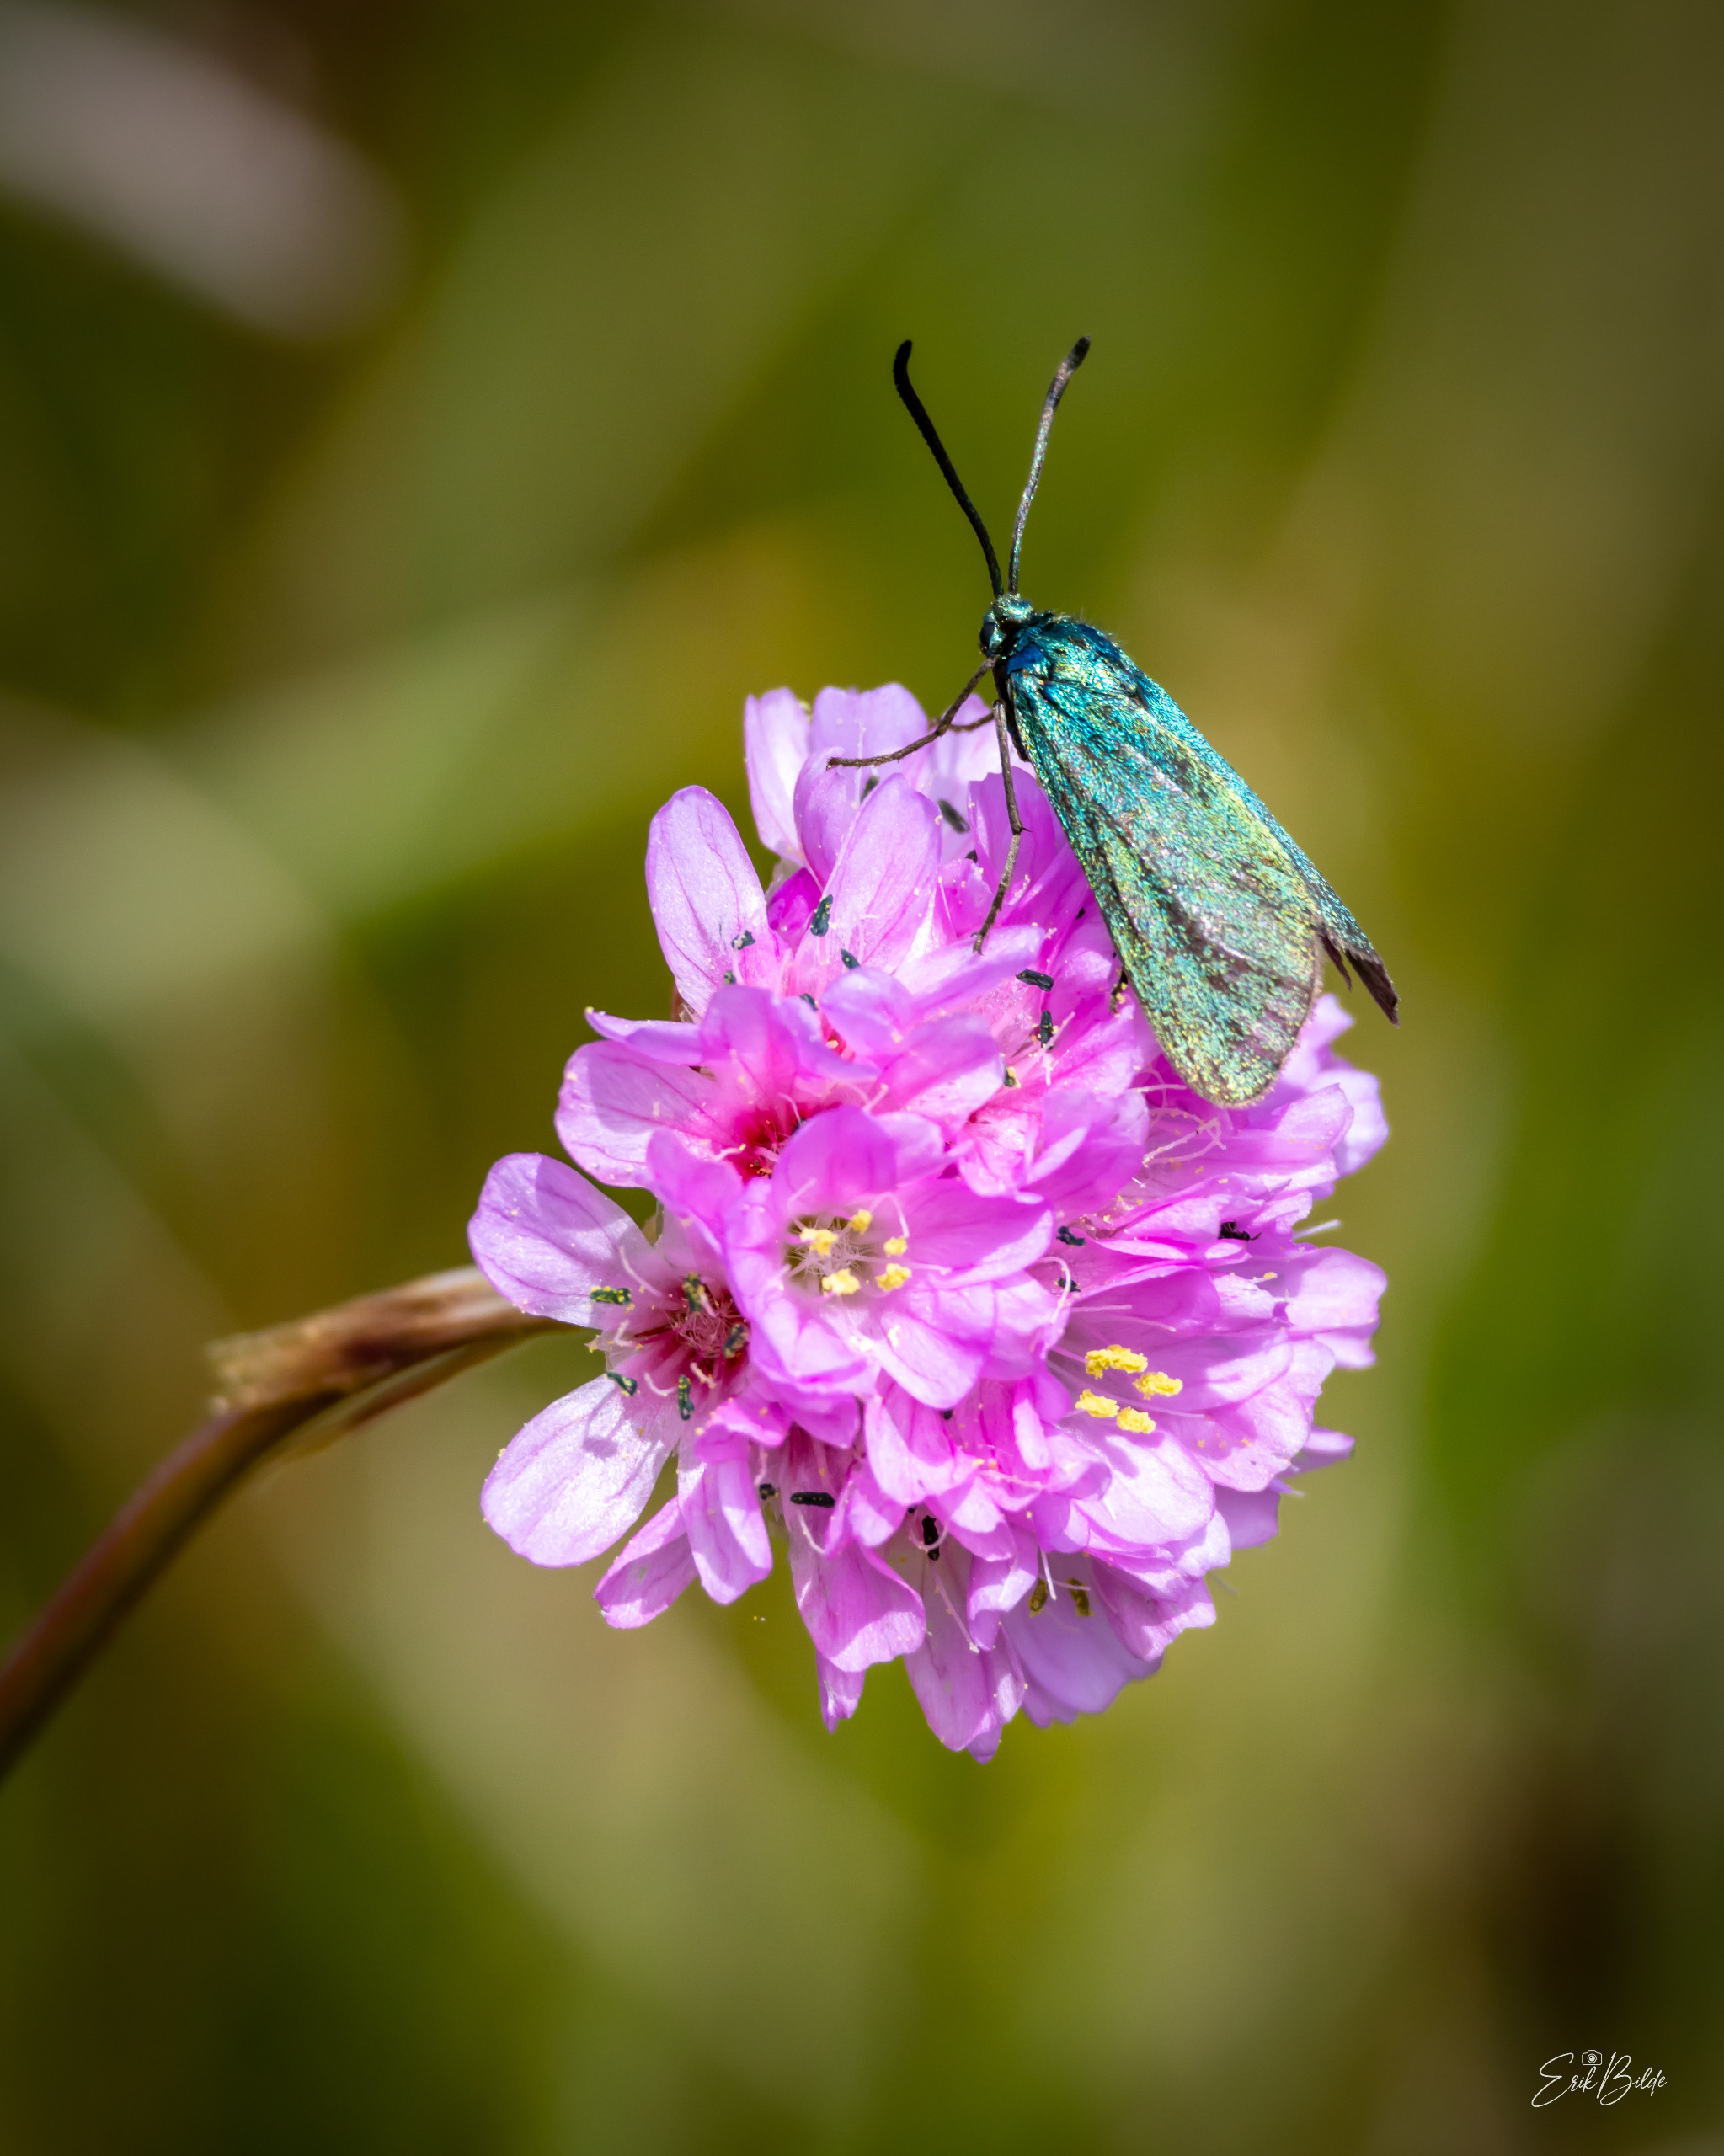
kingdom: Animalia
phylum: Arthropoda
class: Insecta
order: Lepidoptera
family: Zygaenidae
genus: Adscita
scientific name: Adscita statices
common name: Metalvinge
